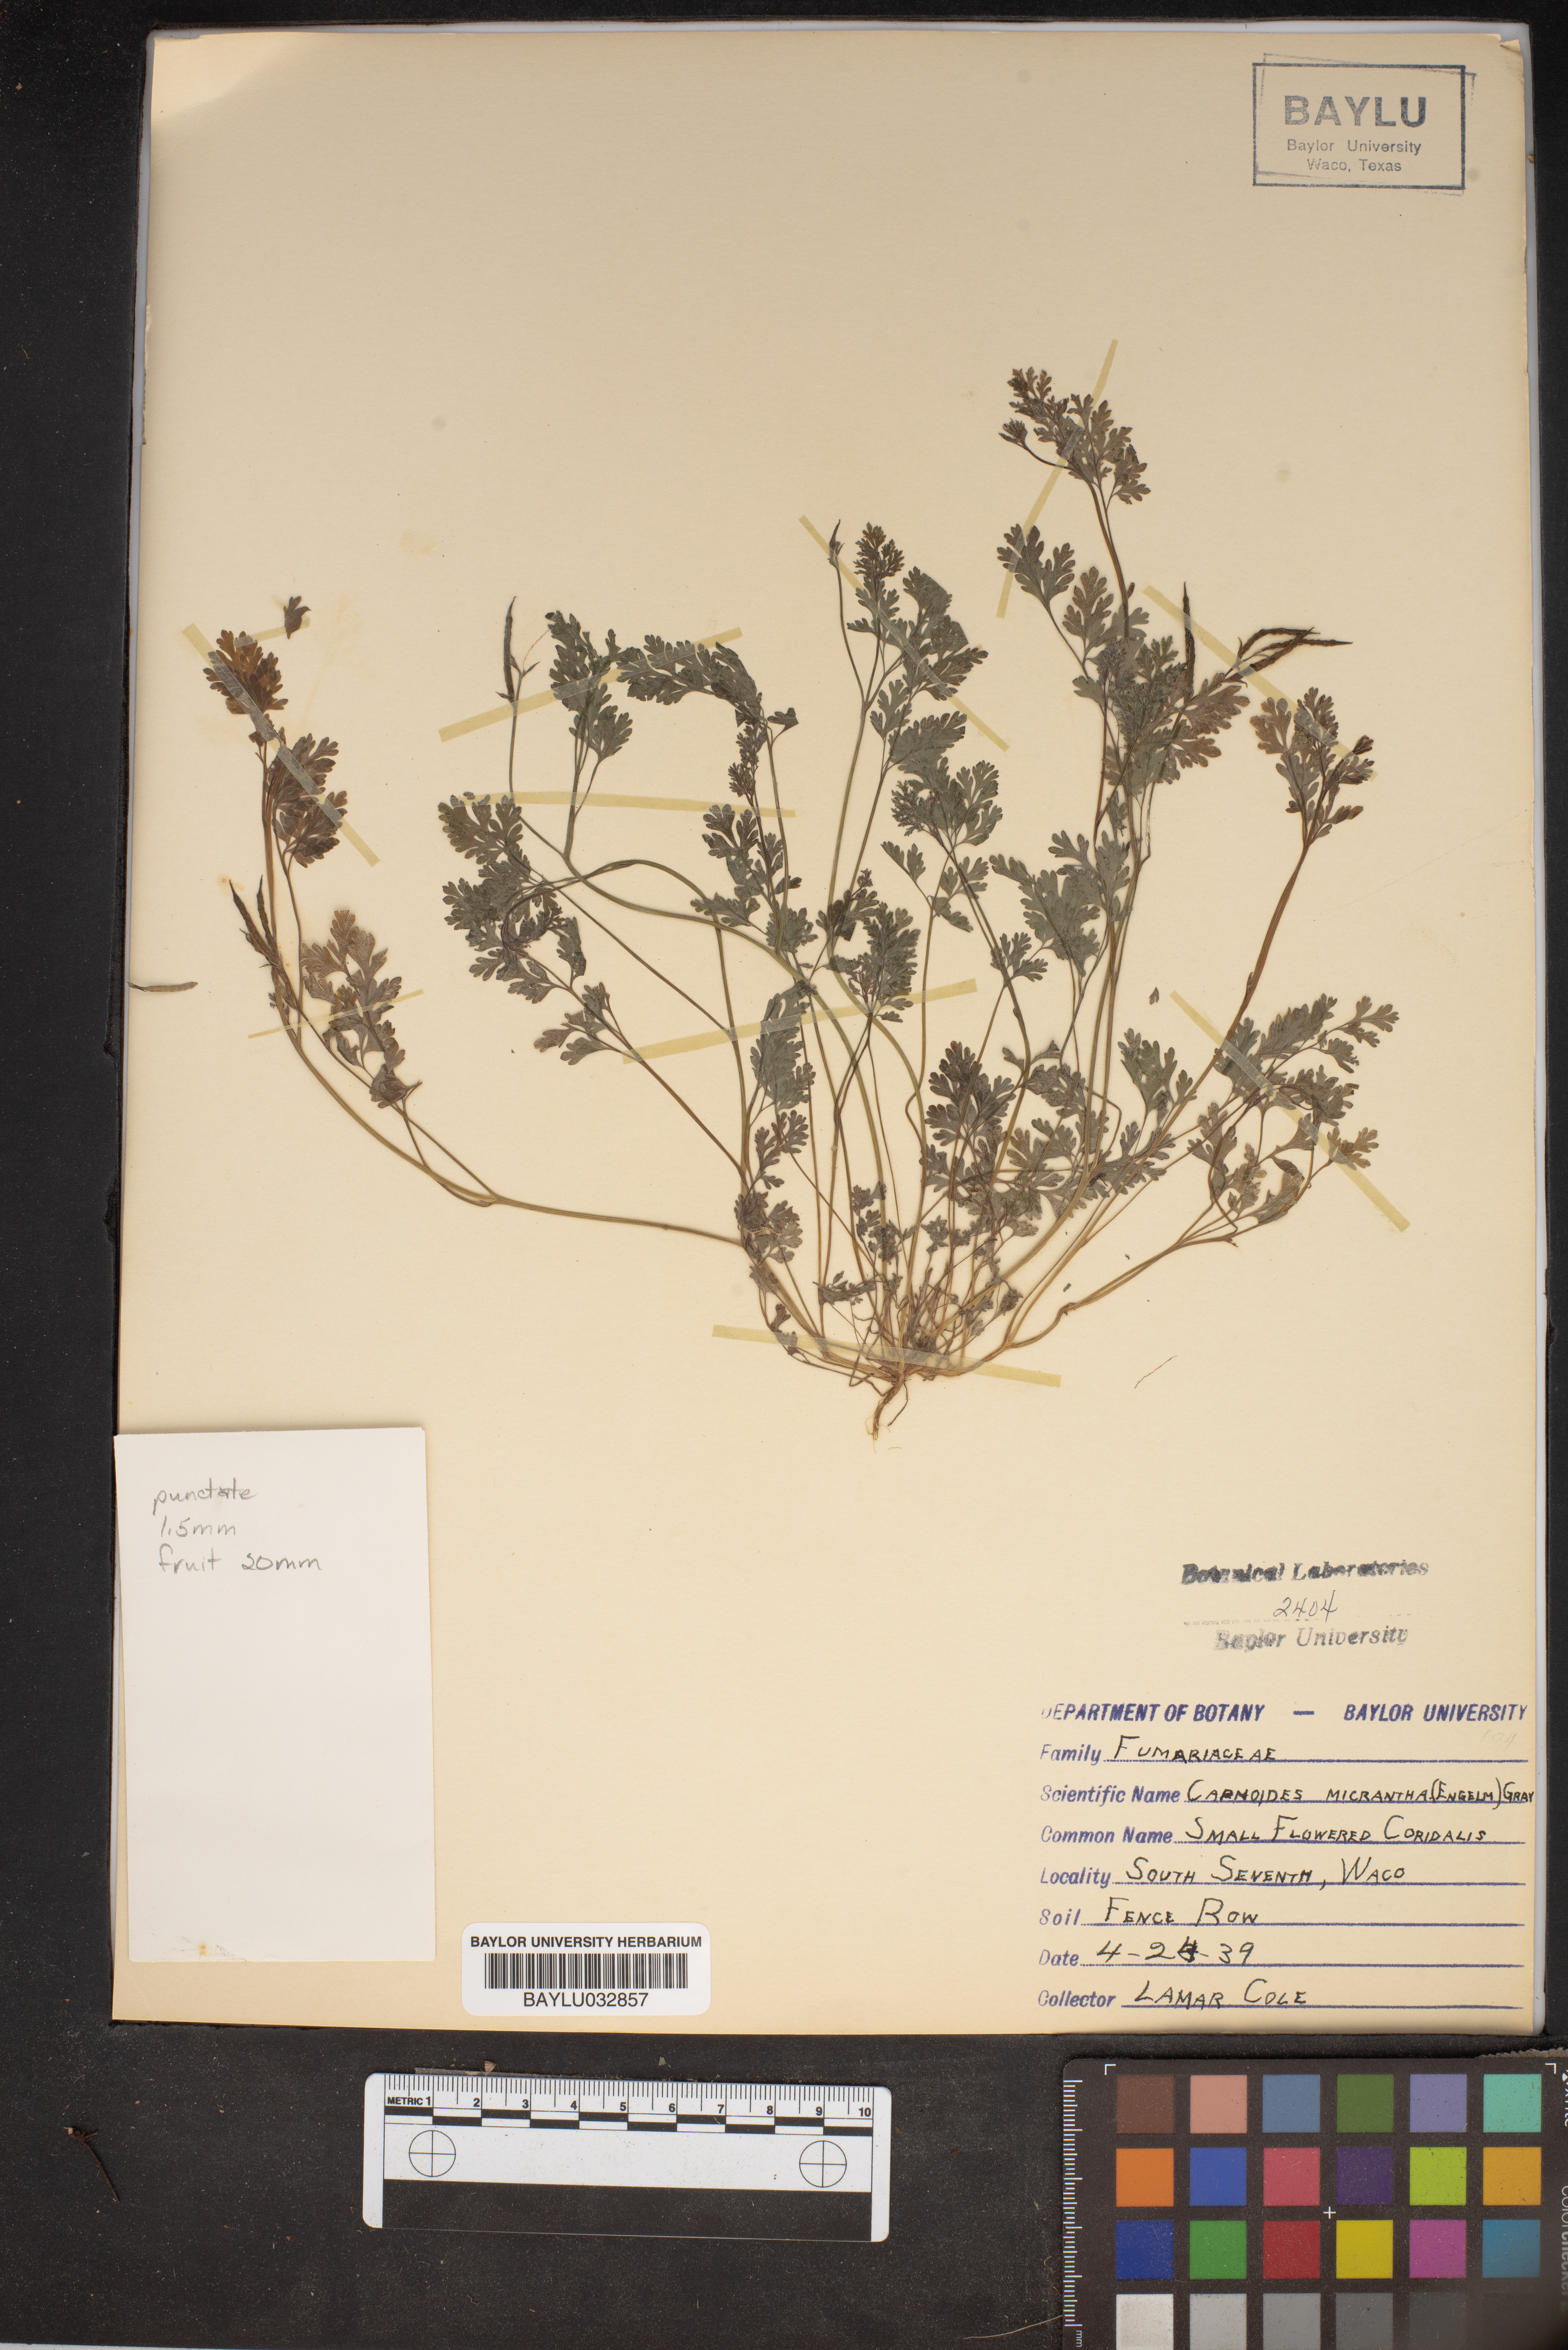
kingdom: Plantae
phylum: Tracheophyta
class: Magnoliopsida
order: Ranunculales
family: Papaveraceae
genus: Corydalis
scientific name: Corydalis micrantha
